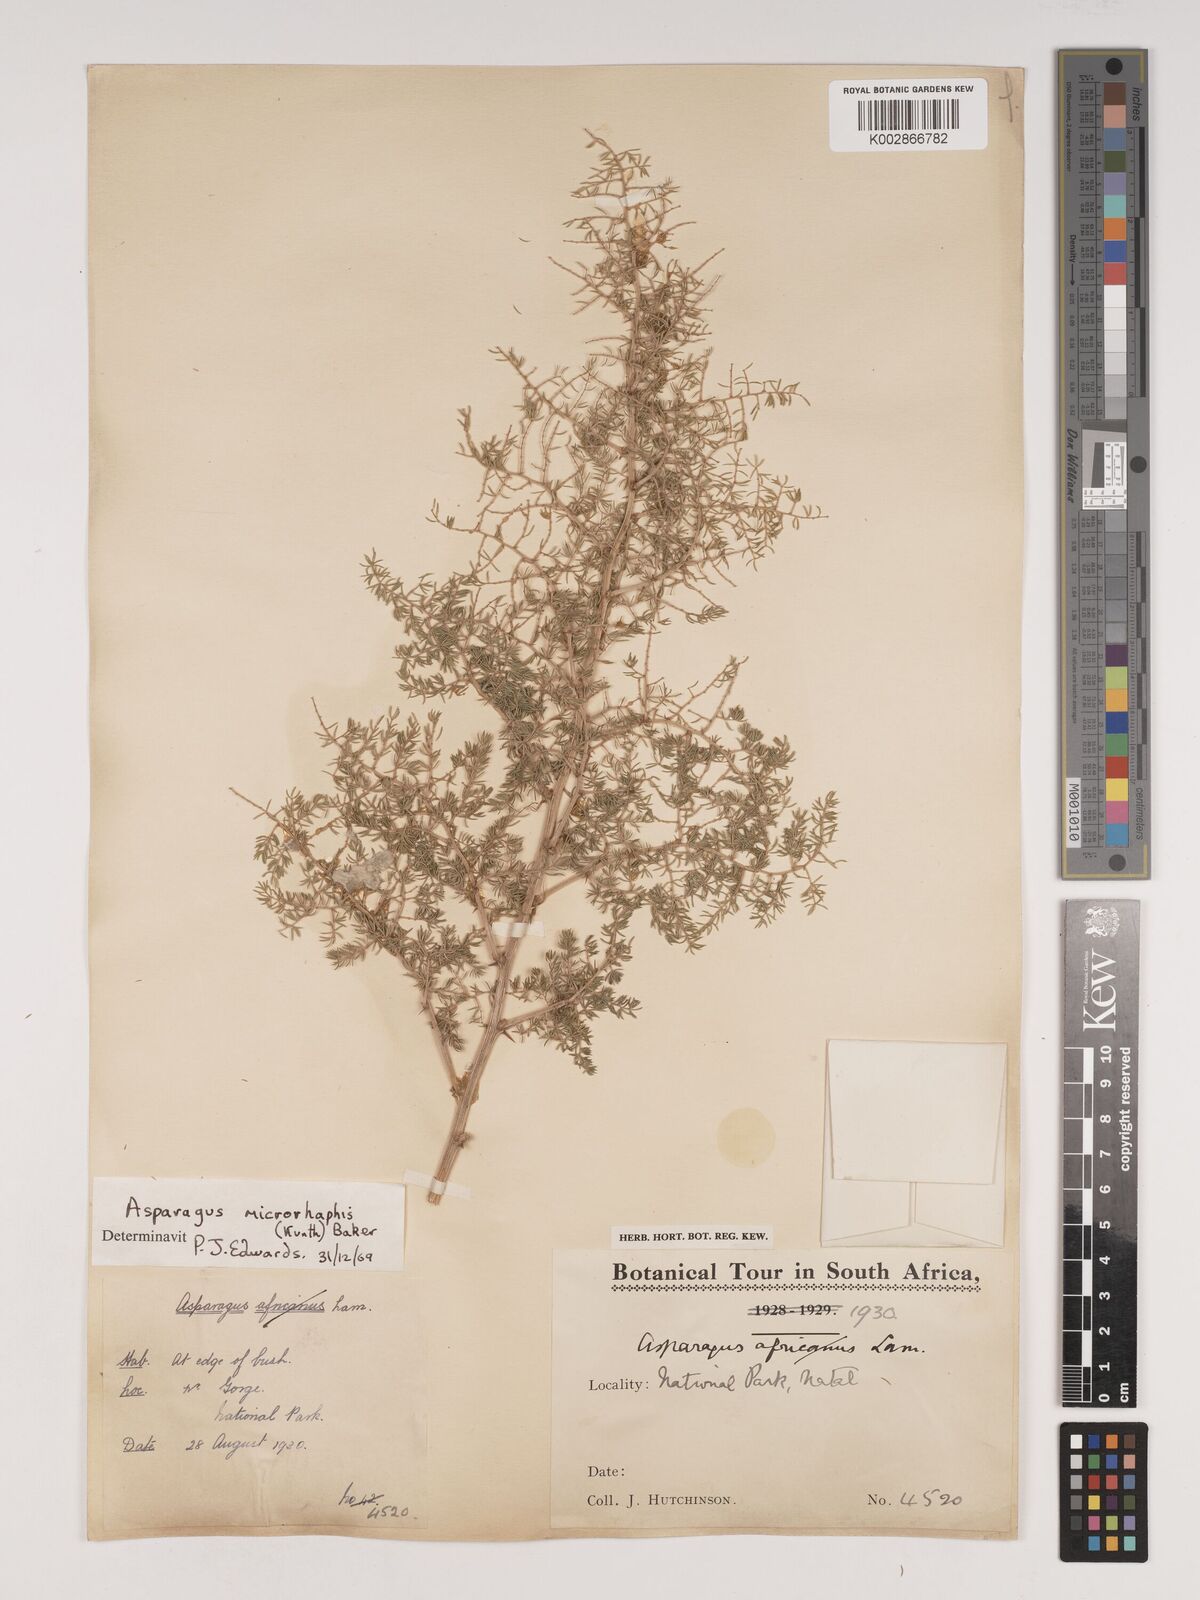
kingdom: Plantae
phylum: Tracheophyta
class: Liliopsida
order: Asparagales
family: Asparagaceae
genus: Asparagus
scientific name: Asparagus microraphis
